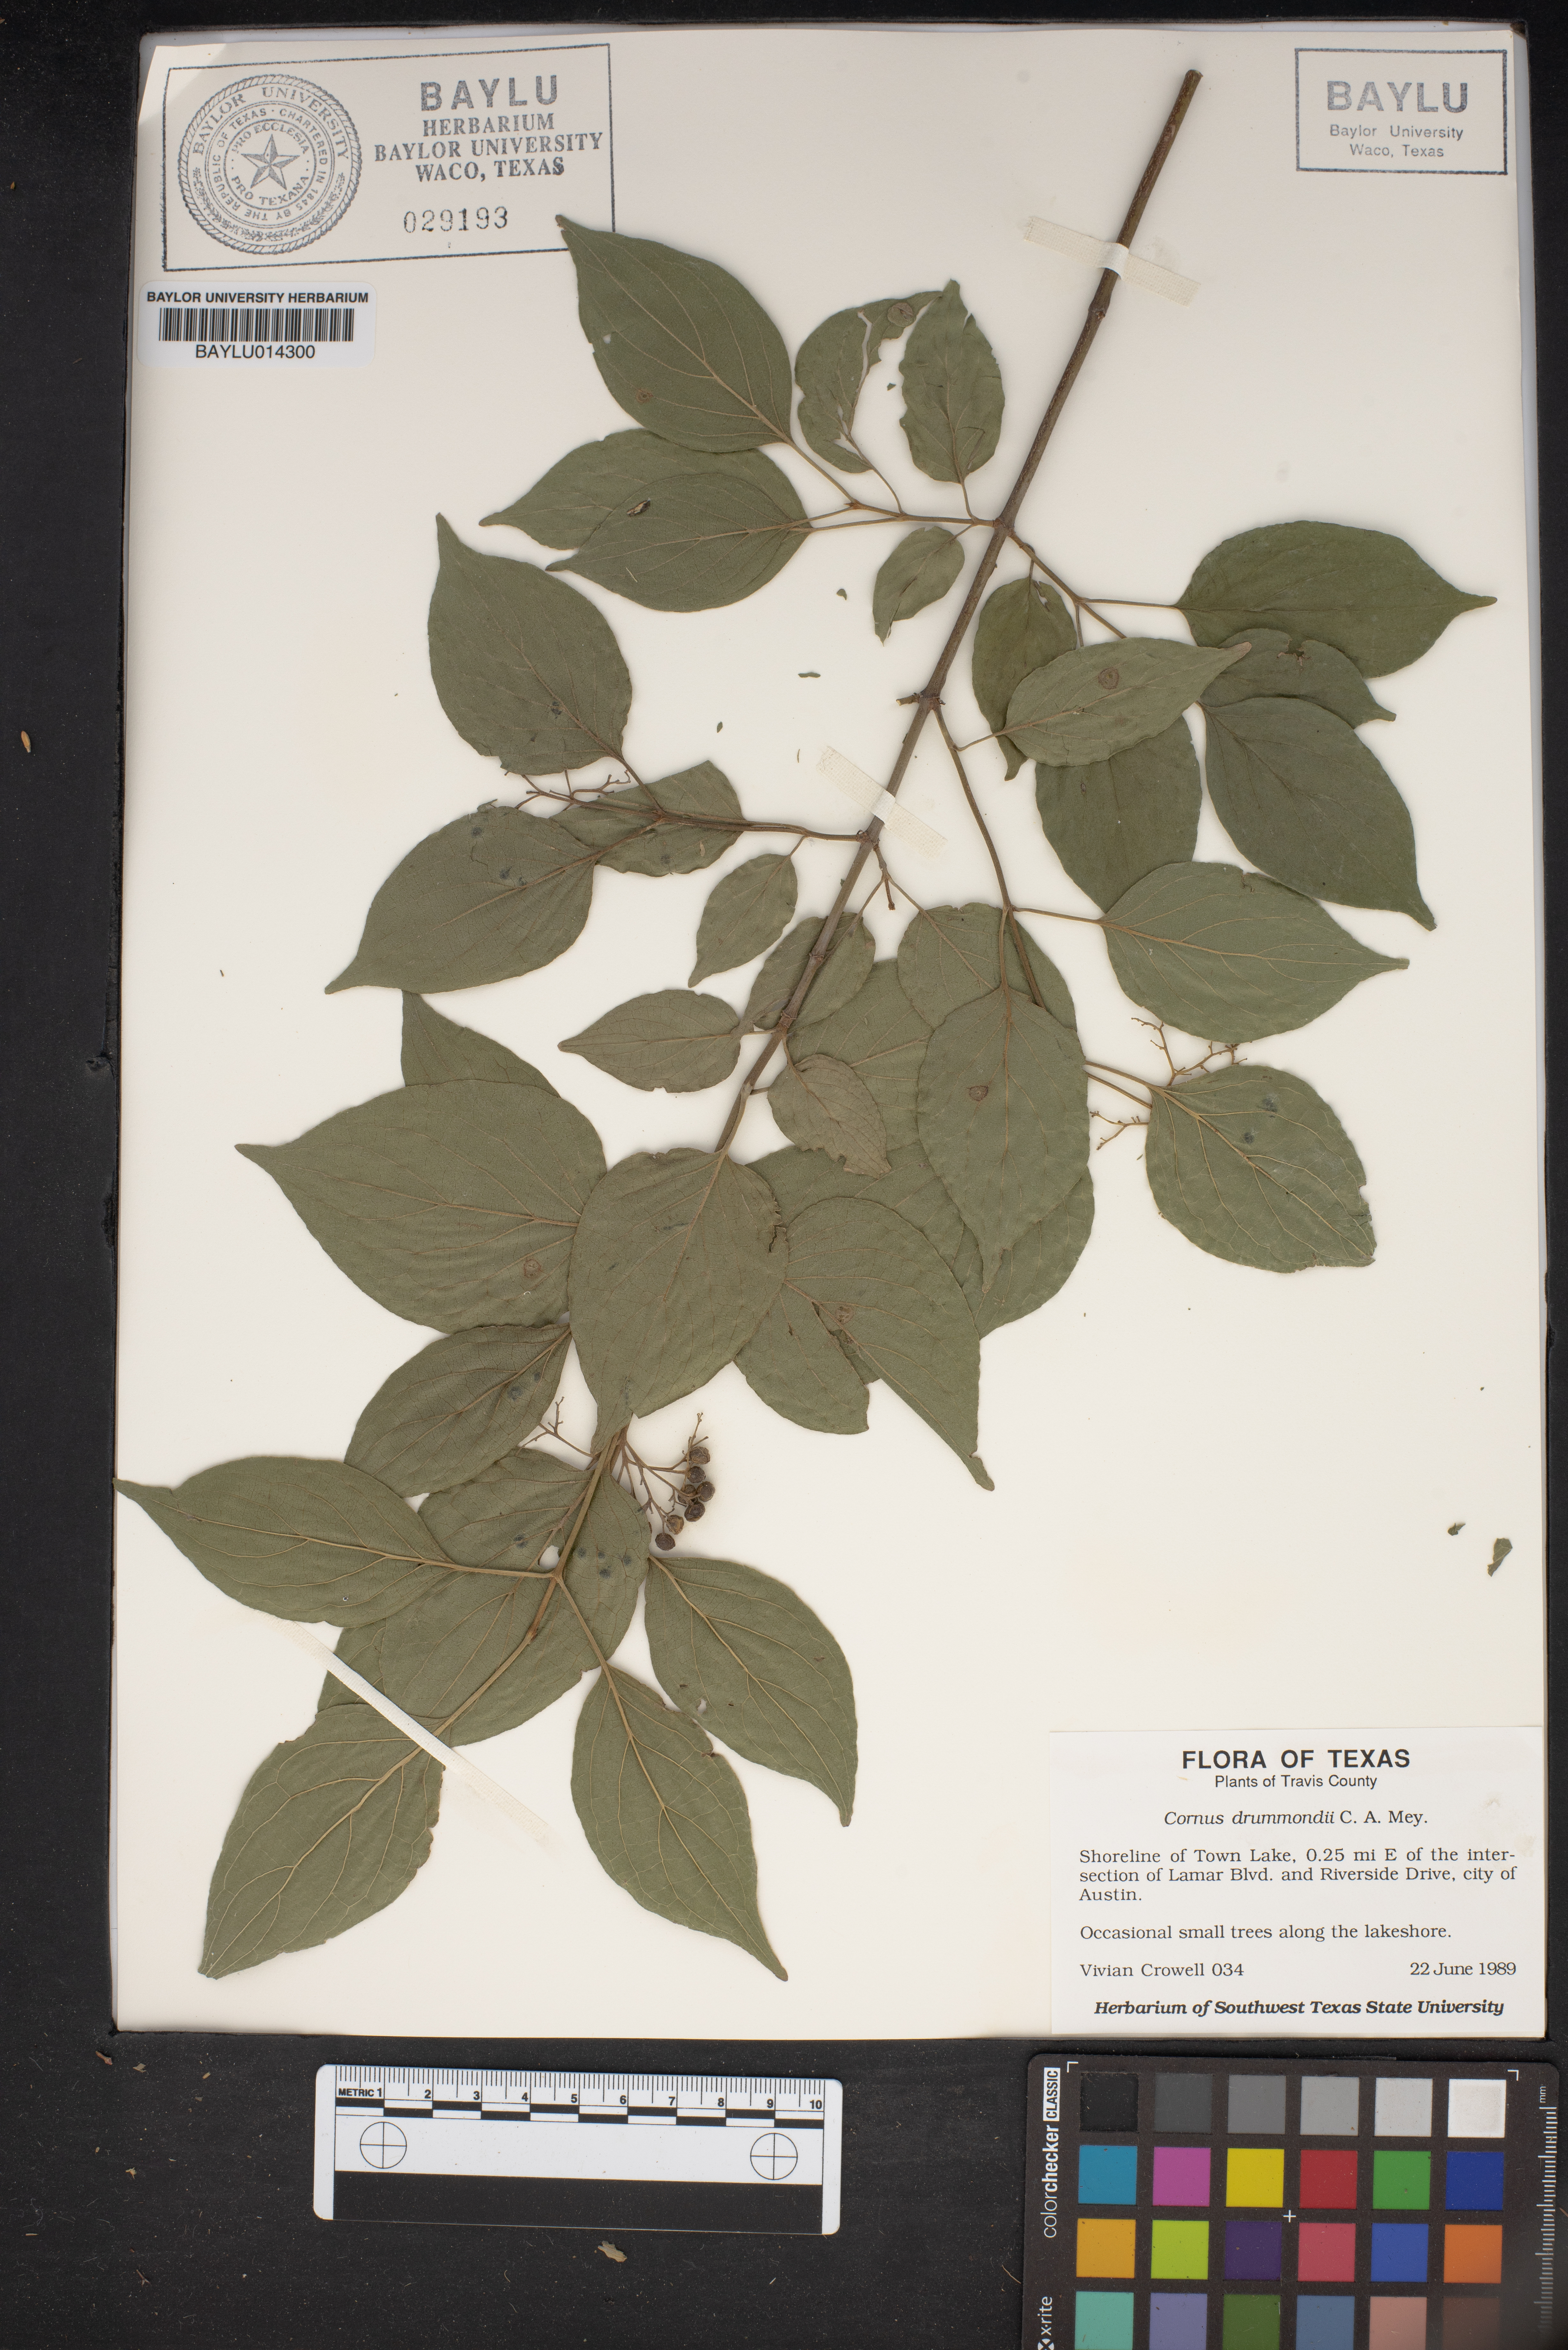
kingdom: Plantae
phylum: Tracheophyta
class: Magnoliopsida
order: Cornales
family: Cornaceae
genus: Cornus
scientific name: Cornus drummondii
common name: Rough-leaf dogwood
